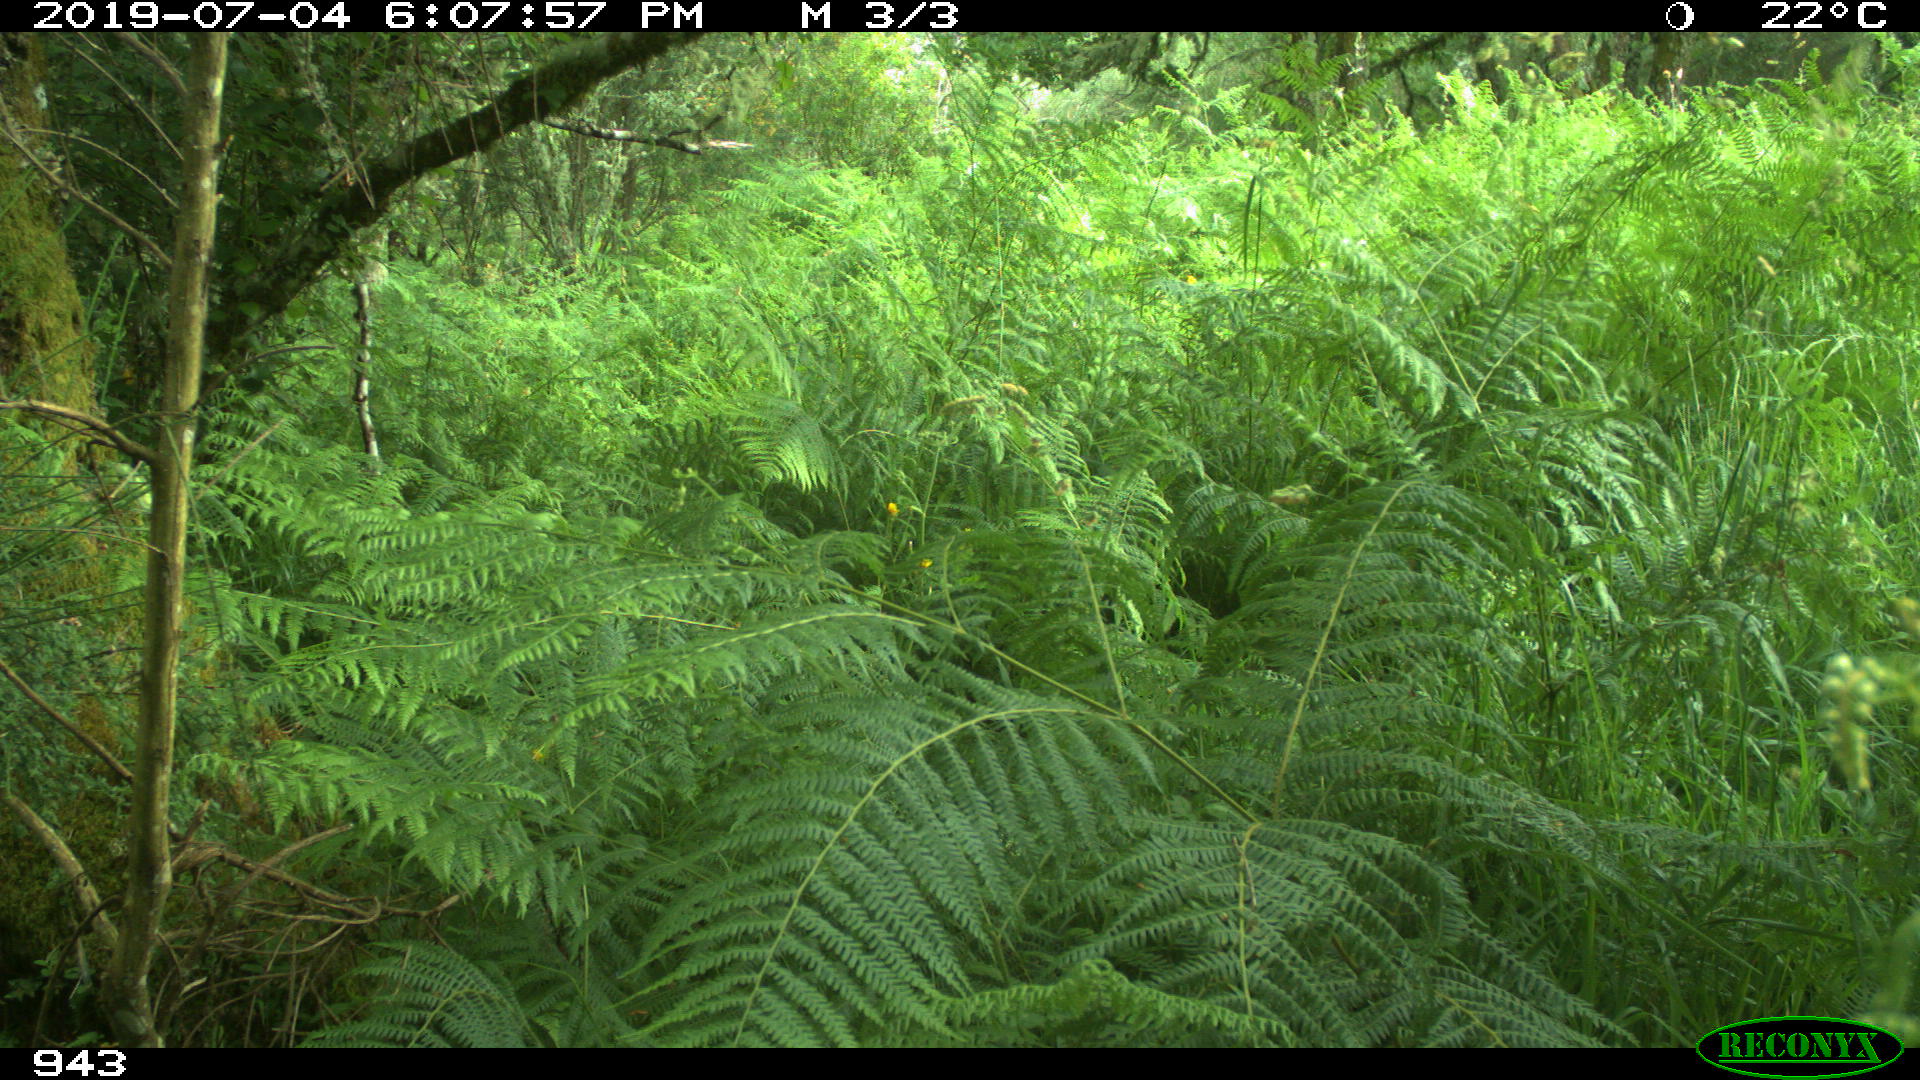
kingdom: Animalia
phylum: Chordata
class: Mammalia
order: Artiodactyla
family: Bovidae
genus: Bos
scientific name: Bos taurus
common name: Domesticated cattle
